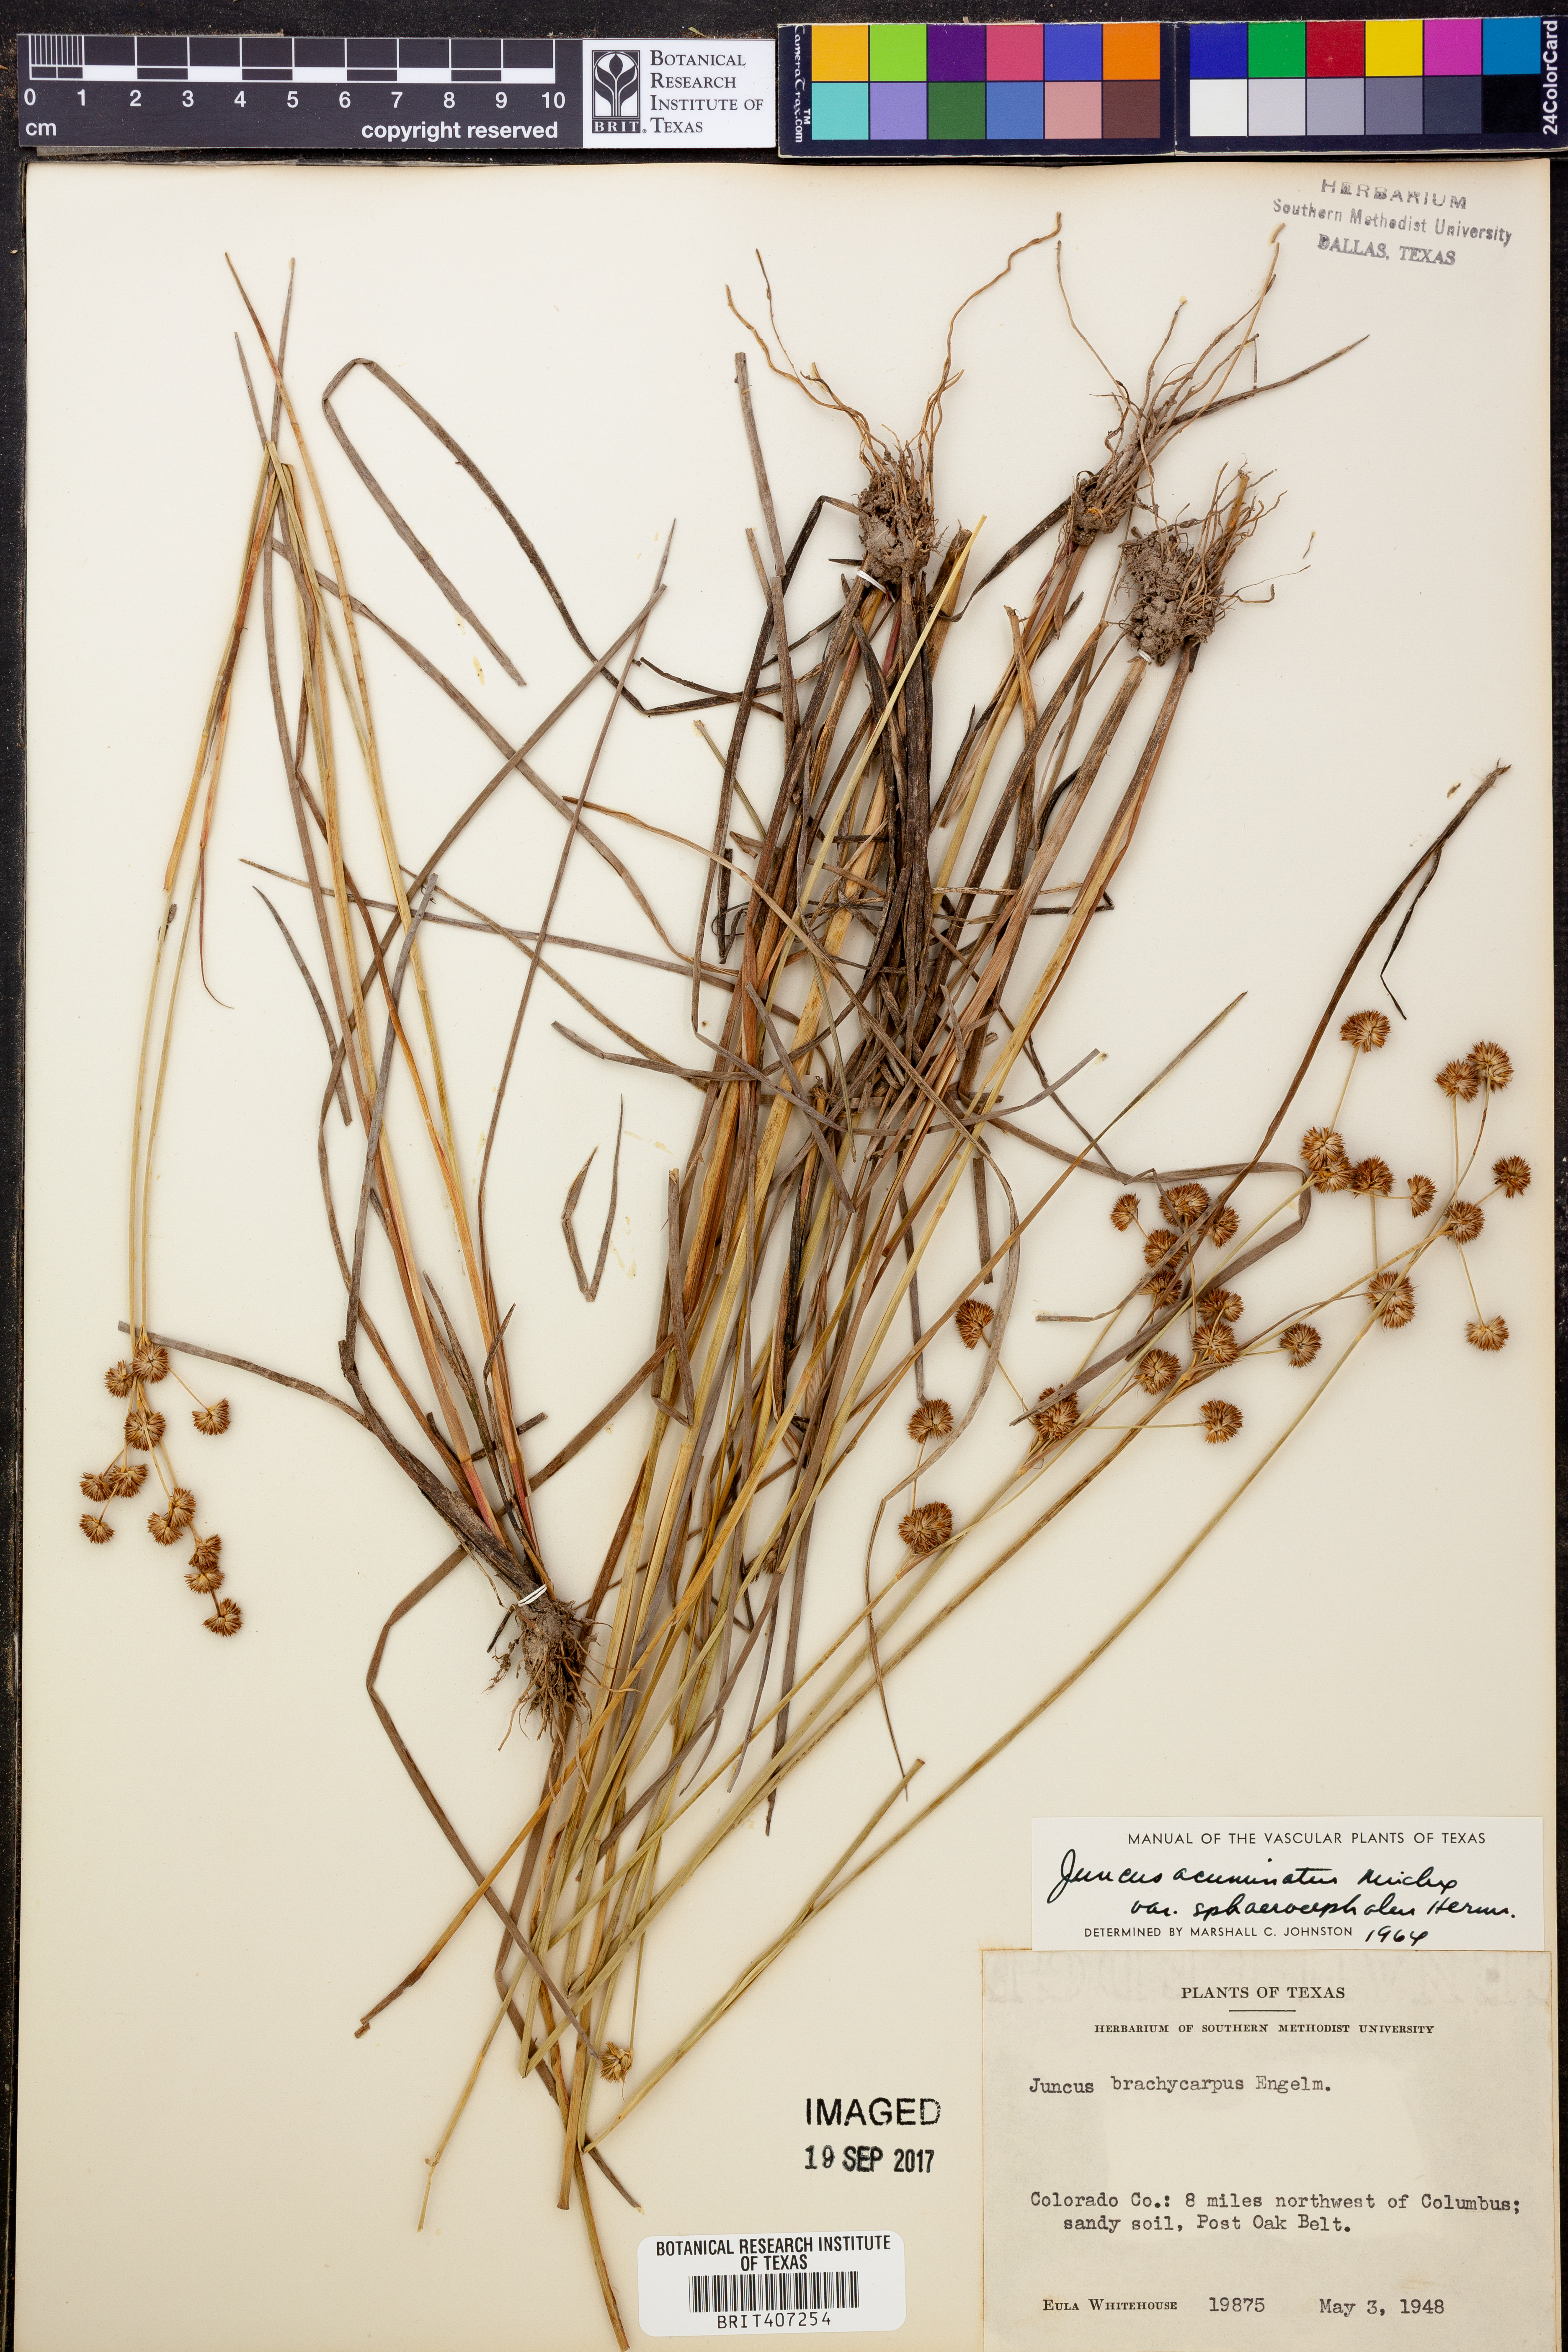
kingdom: Plantae
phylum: Tracheophyta
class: Liliopsida
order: Poales
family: Juncaceae
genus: Juncus
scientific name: Juncus brachycarpus
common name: Shore rush
